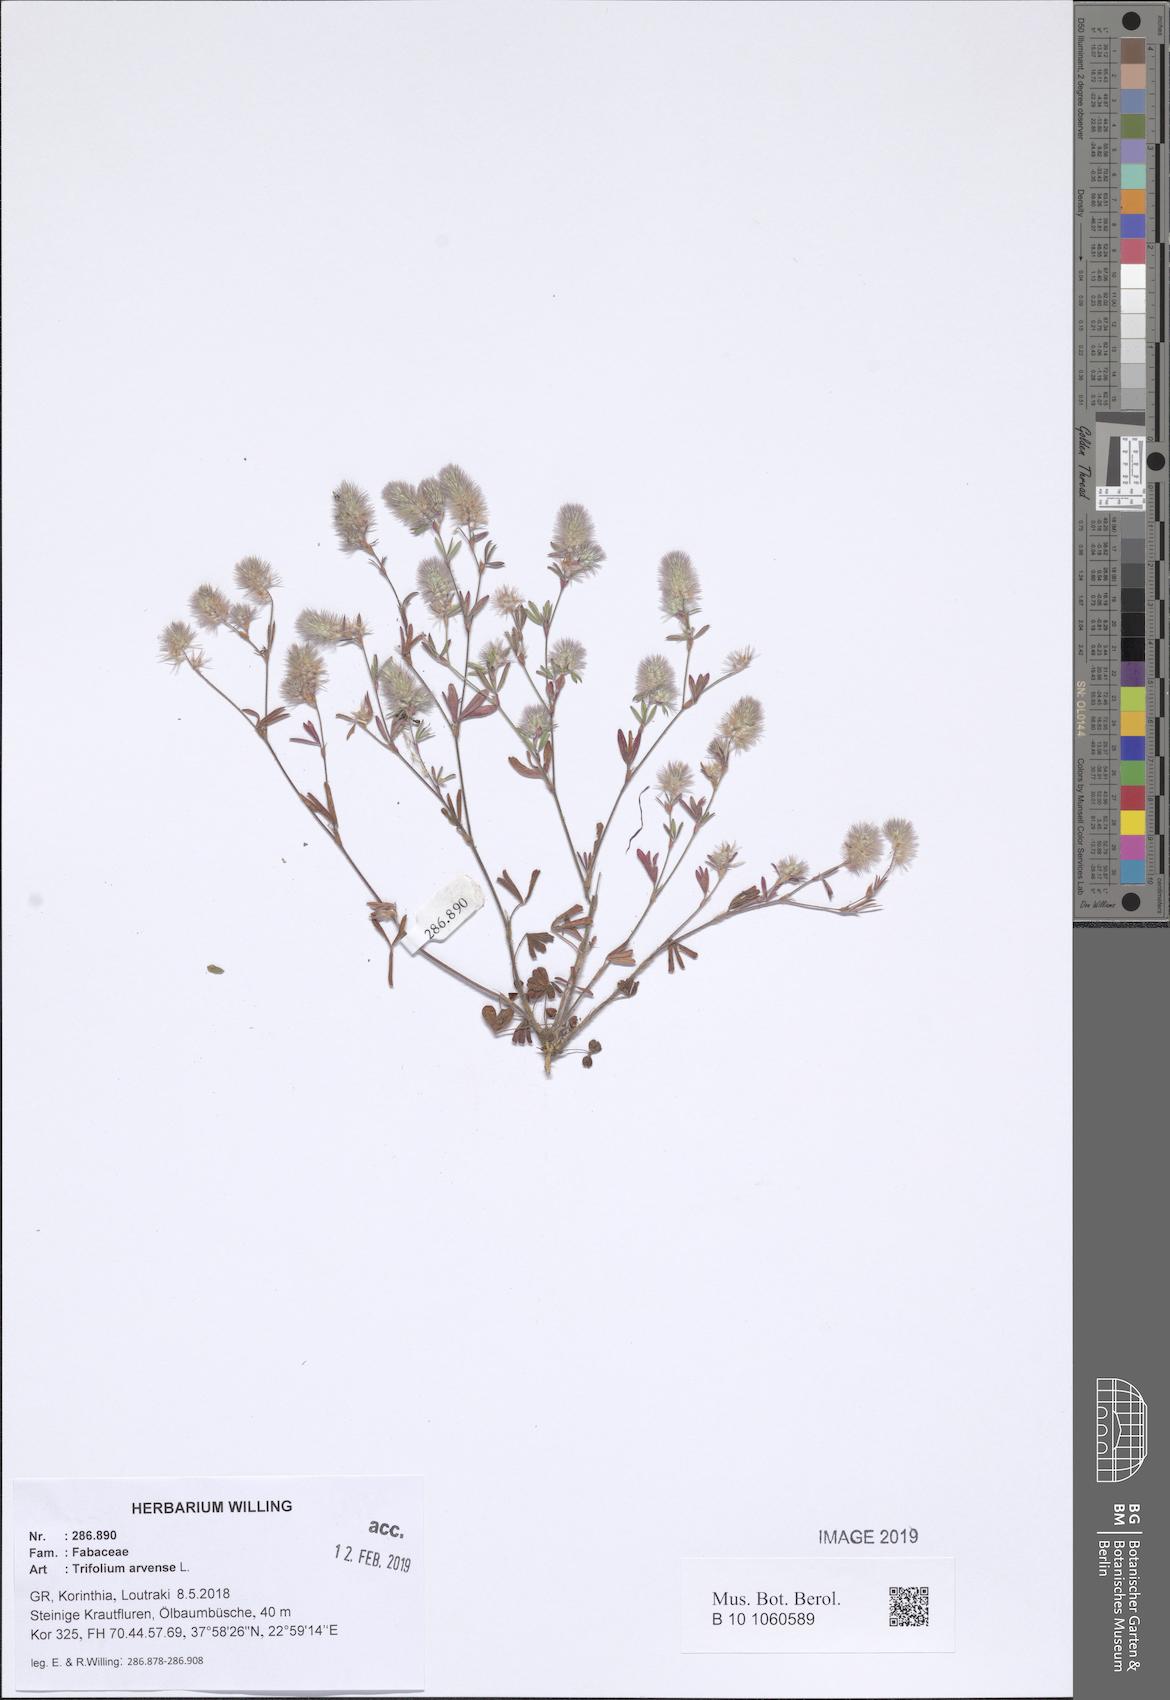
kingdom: Plantae
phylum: Tracheophyta
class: Magnoliopsida
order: Fabales
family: Fabaceae
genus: Trifolium
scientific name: Trifolium arvense
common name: Hare's-foot clover
